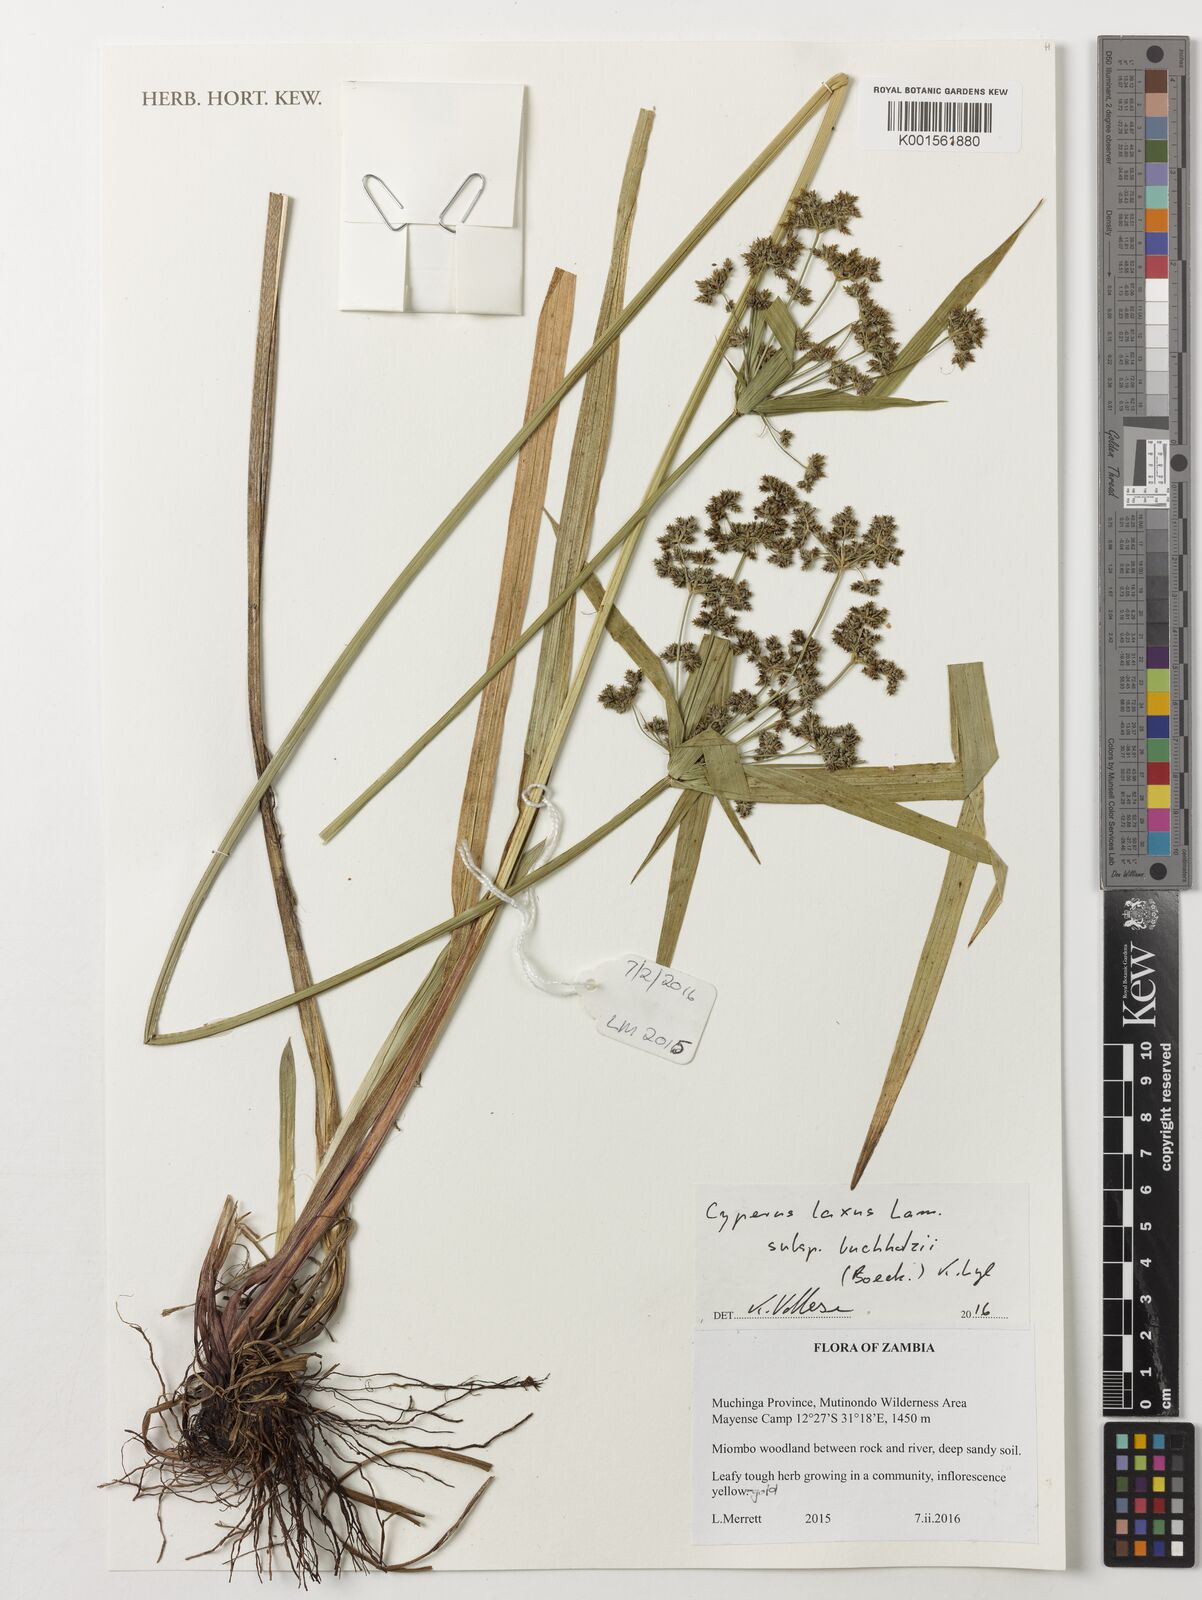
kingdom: Plantae
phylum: Tracheophyta
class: Liliopsida
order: Poales
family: Cyperaceae
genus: Cyperus
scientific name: Cyperus buchholzii
